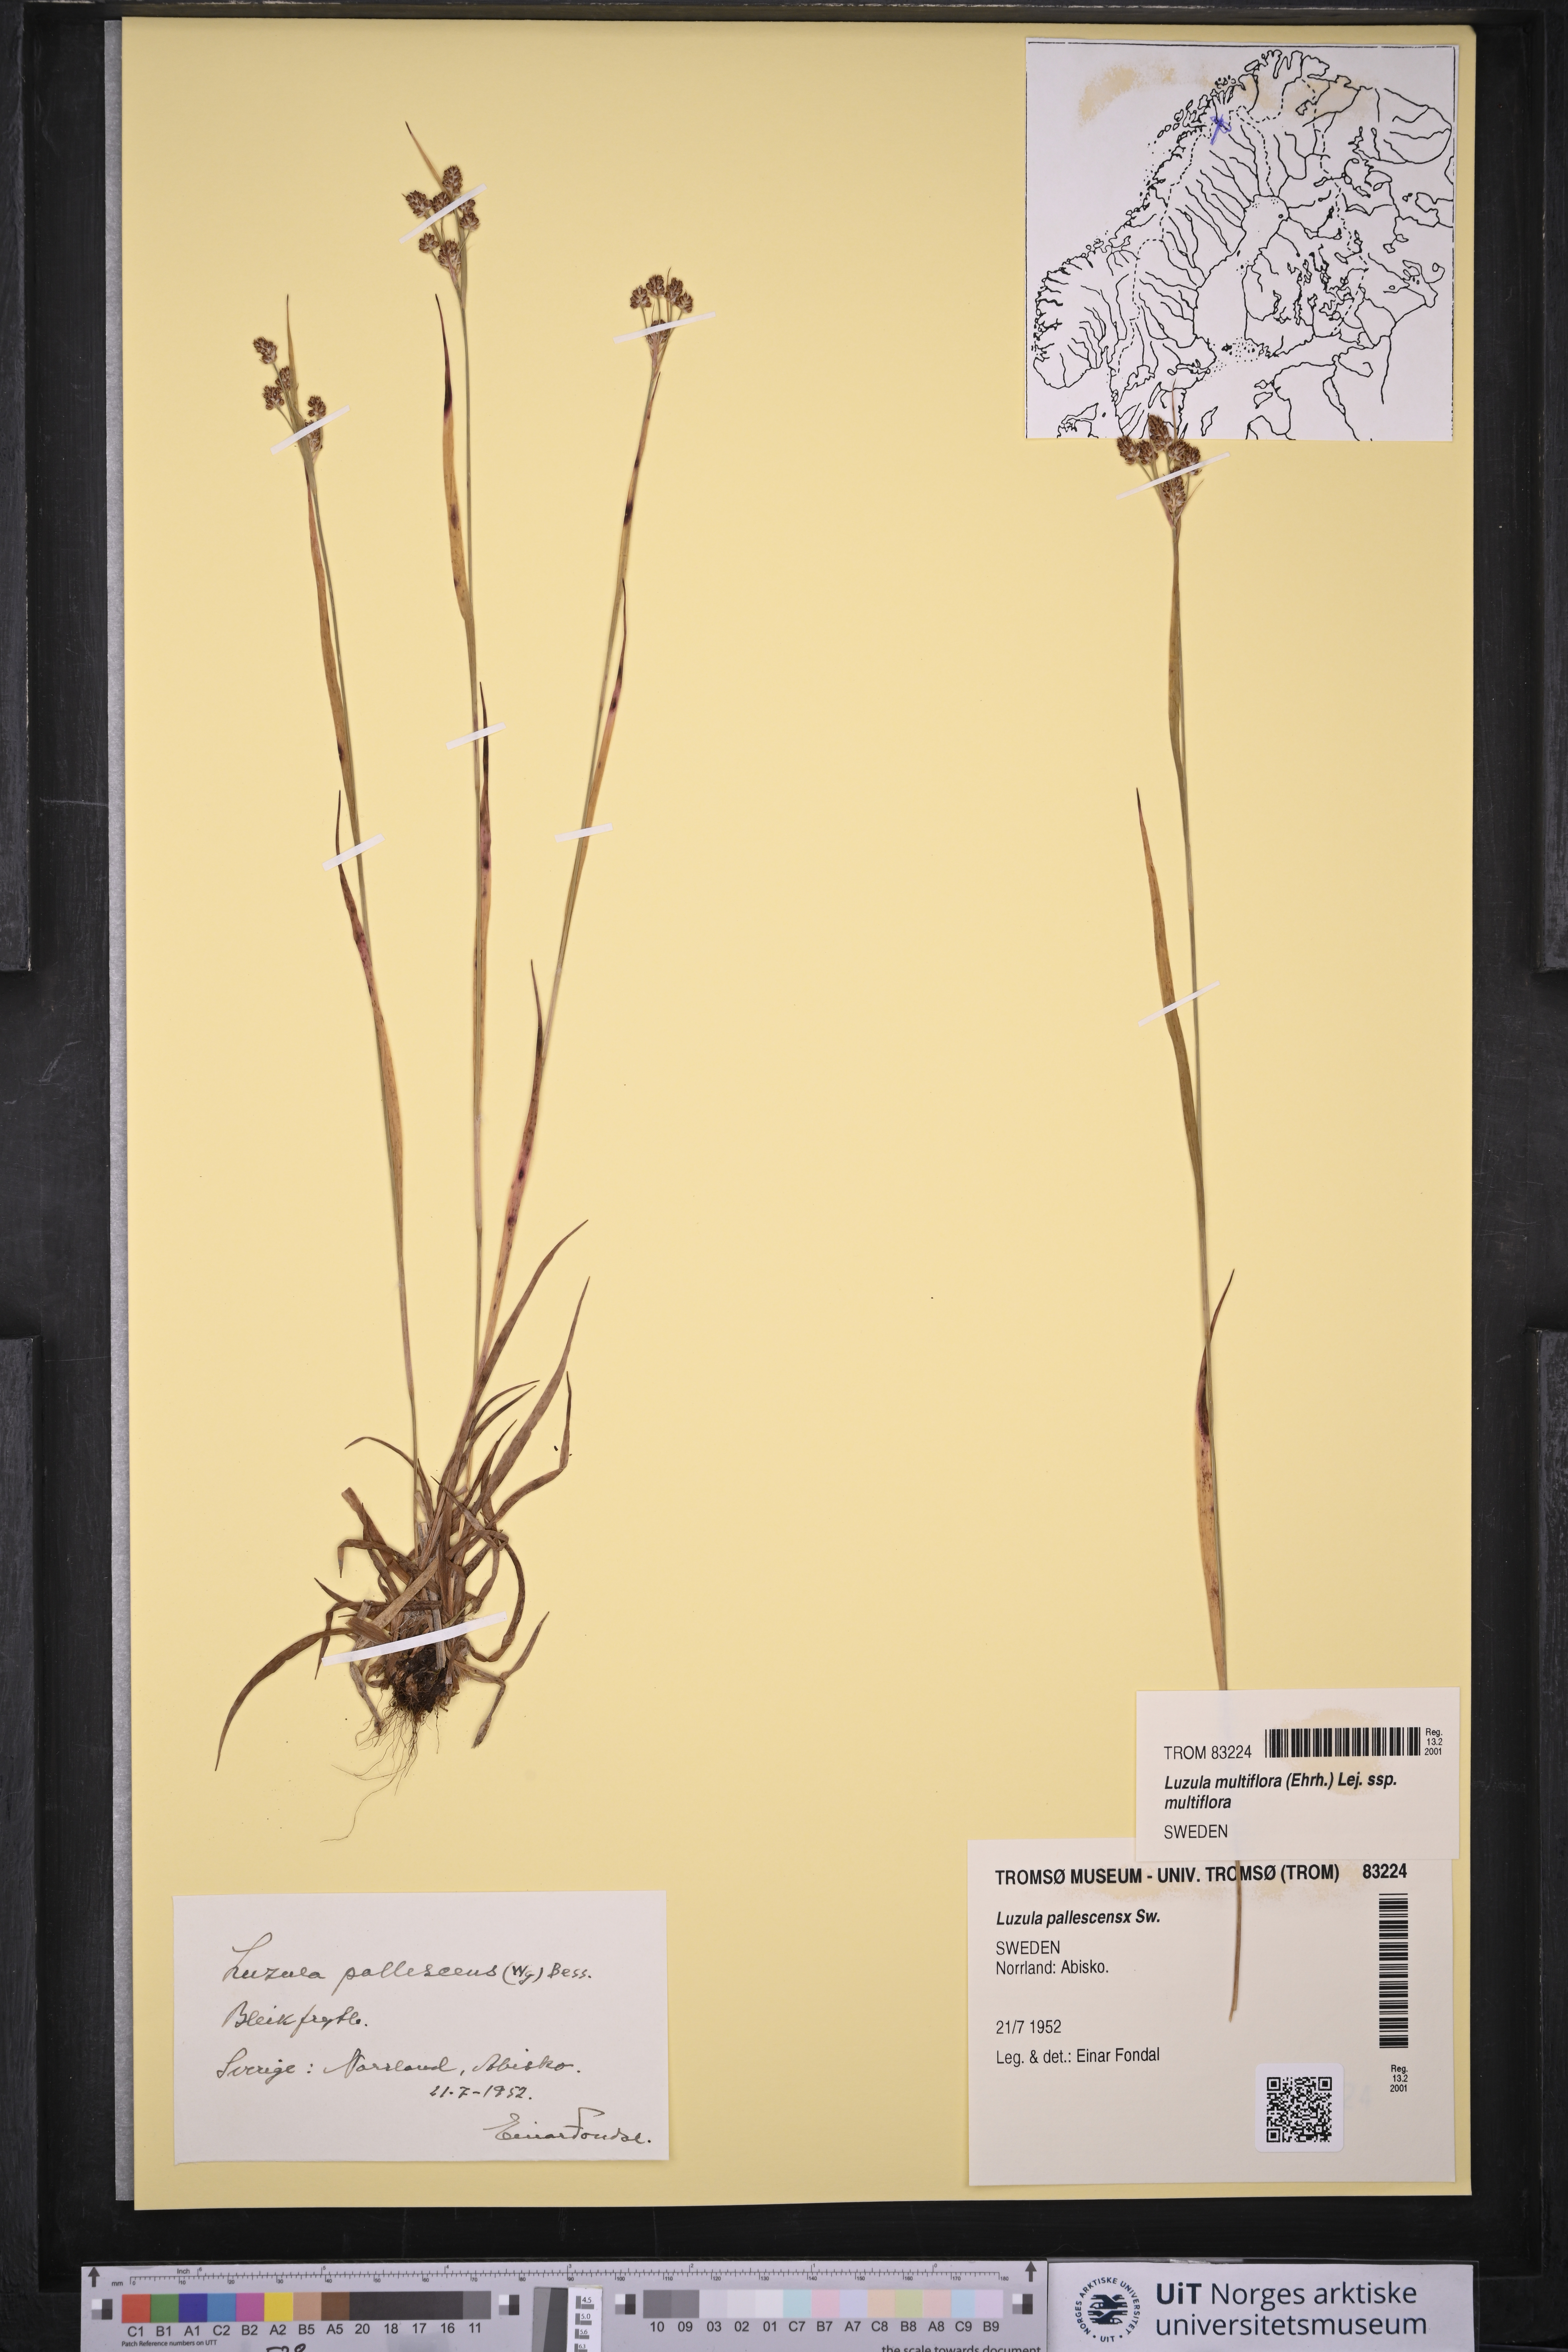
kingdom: Plantae
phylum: Tracheophyta
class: Liliopsida
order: Poales
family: Juncaceae
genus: Luzula
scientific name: Luzula pallescens
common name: Fen wood-rush
